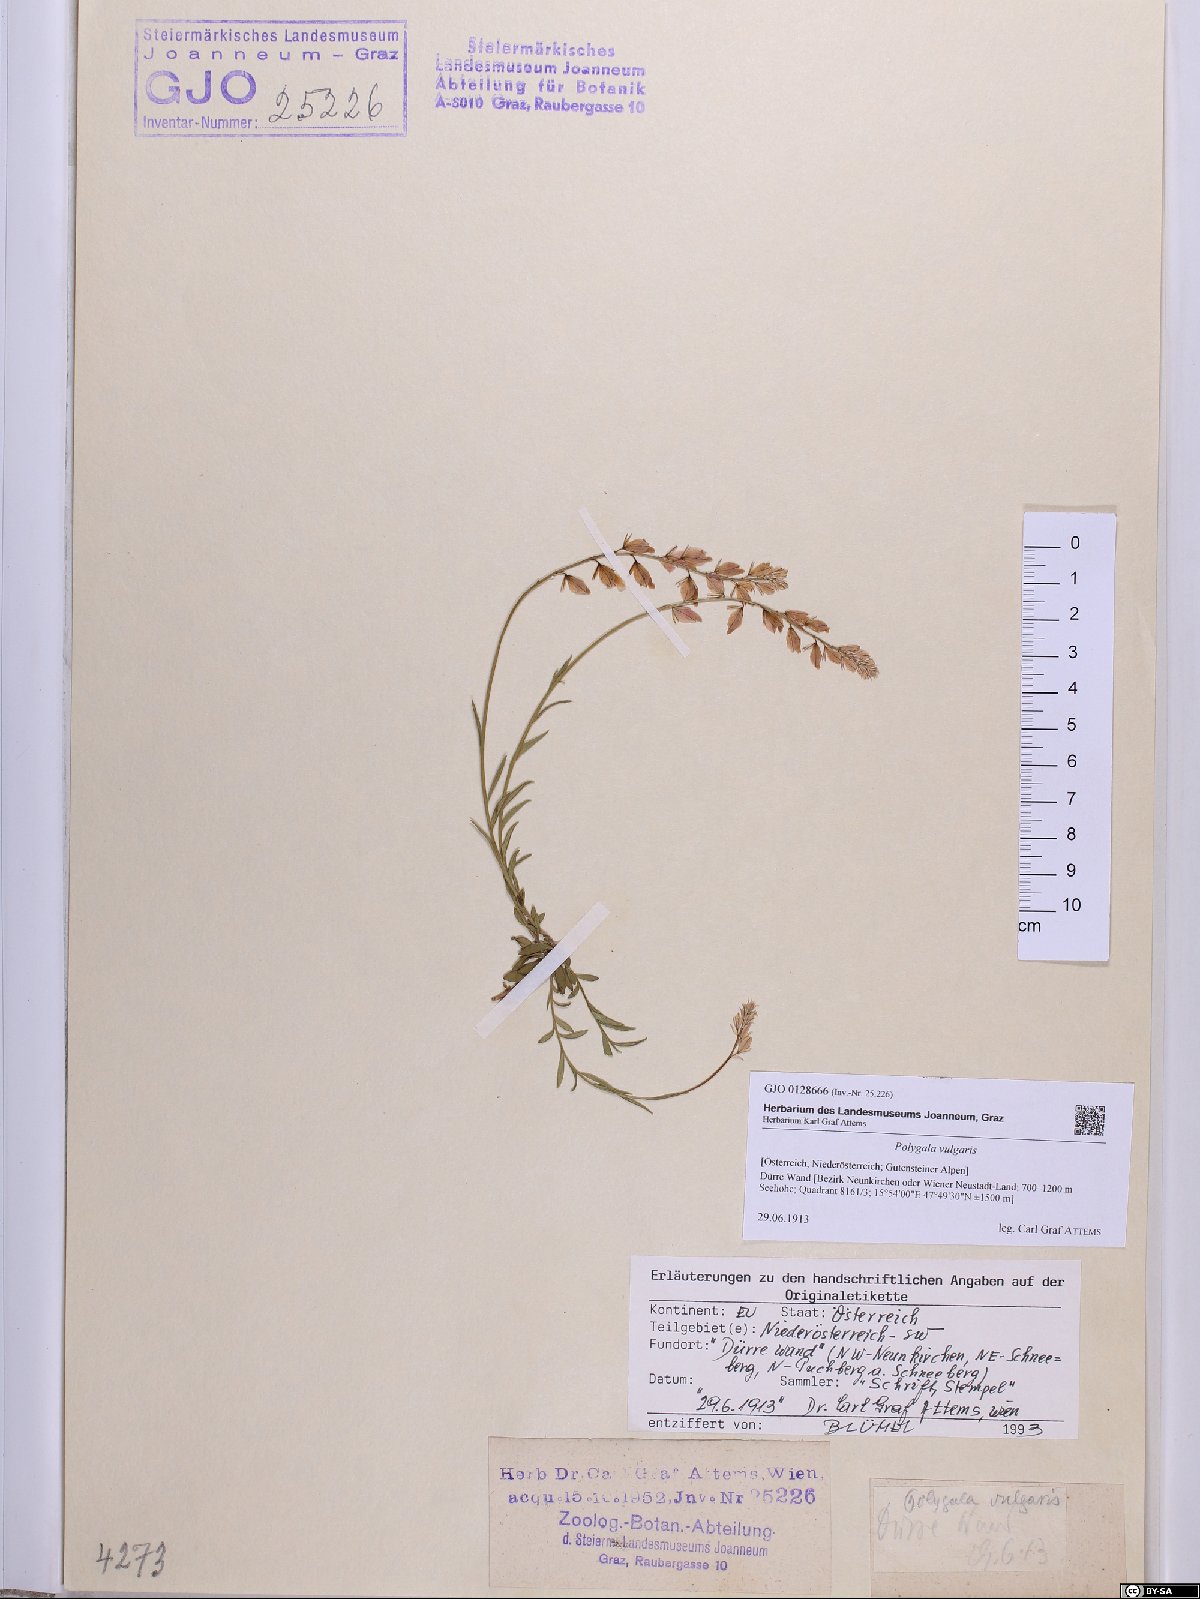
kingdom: Plantae
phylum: Tracheophyta
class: Magnoliopsida
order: Fabales
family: Polygalaceae
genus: Polygala
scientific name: Polygala vulgaris
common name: Common milkwort
